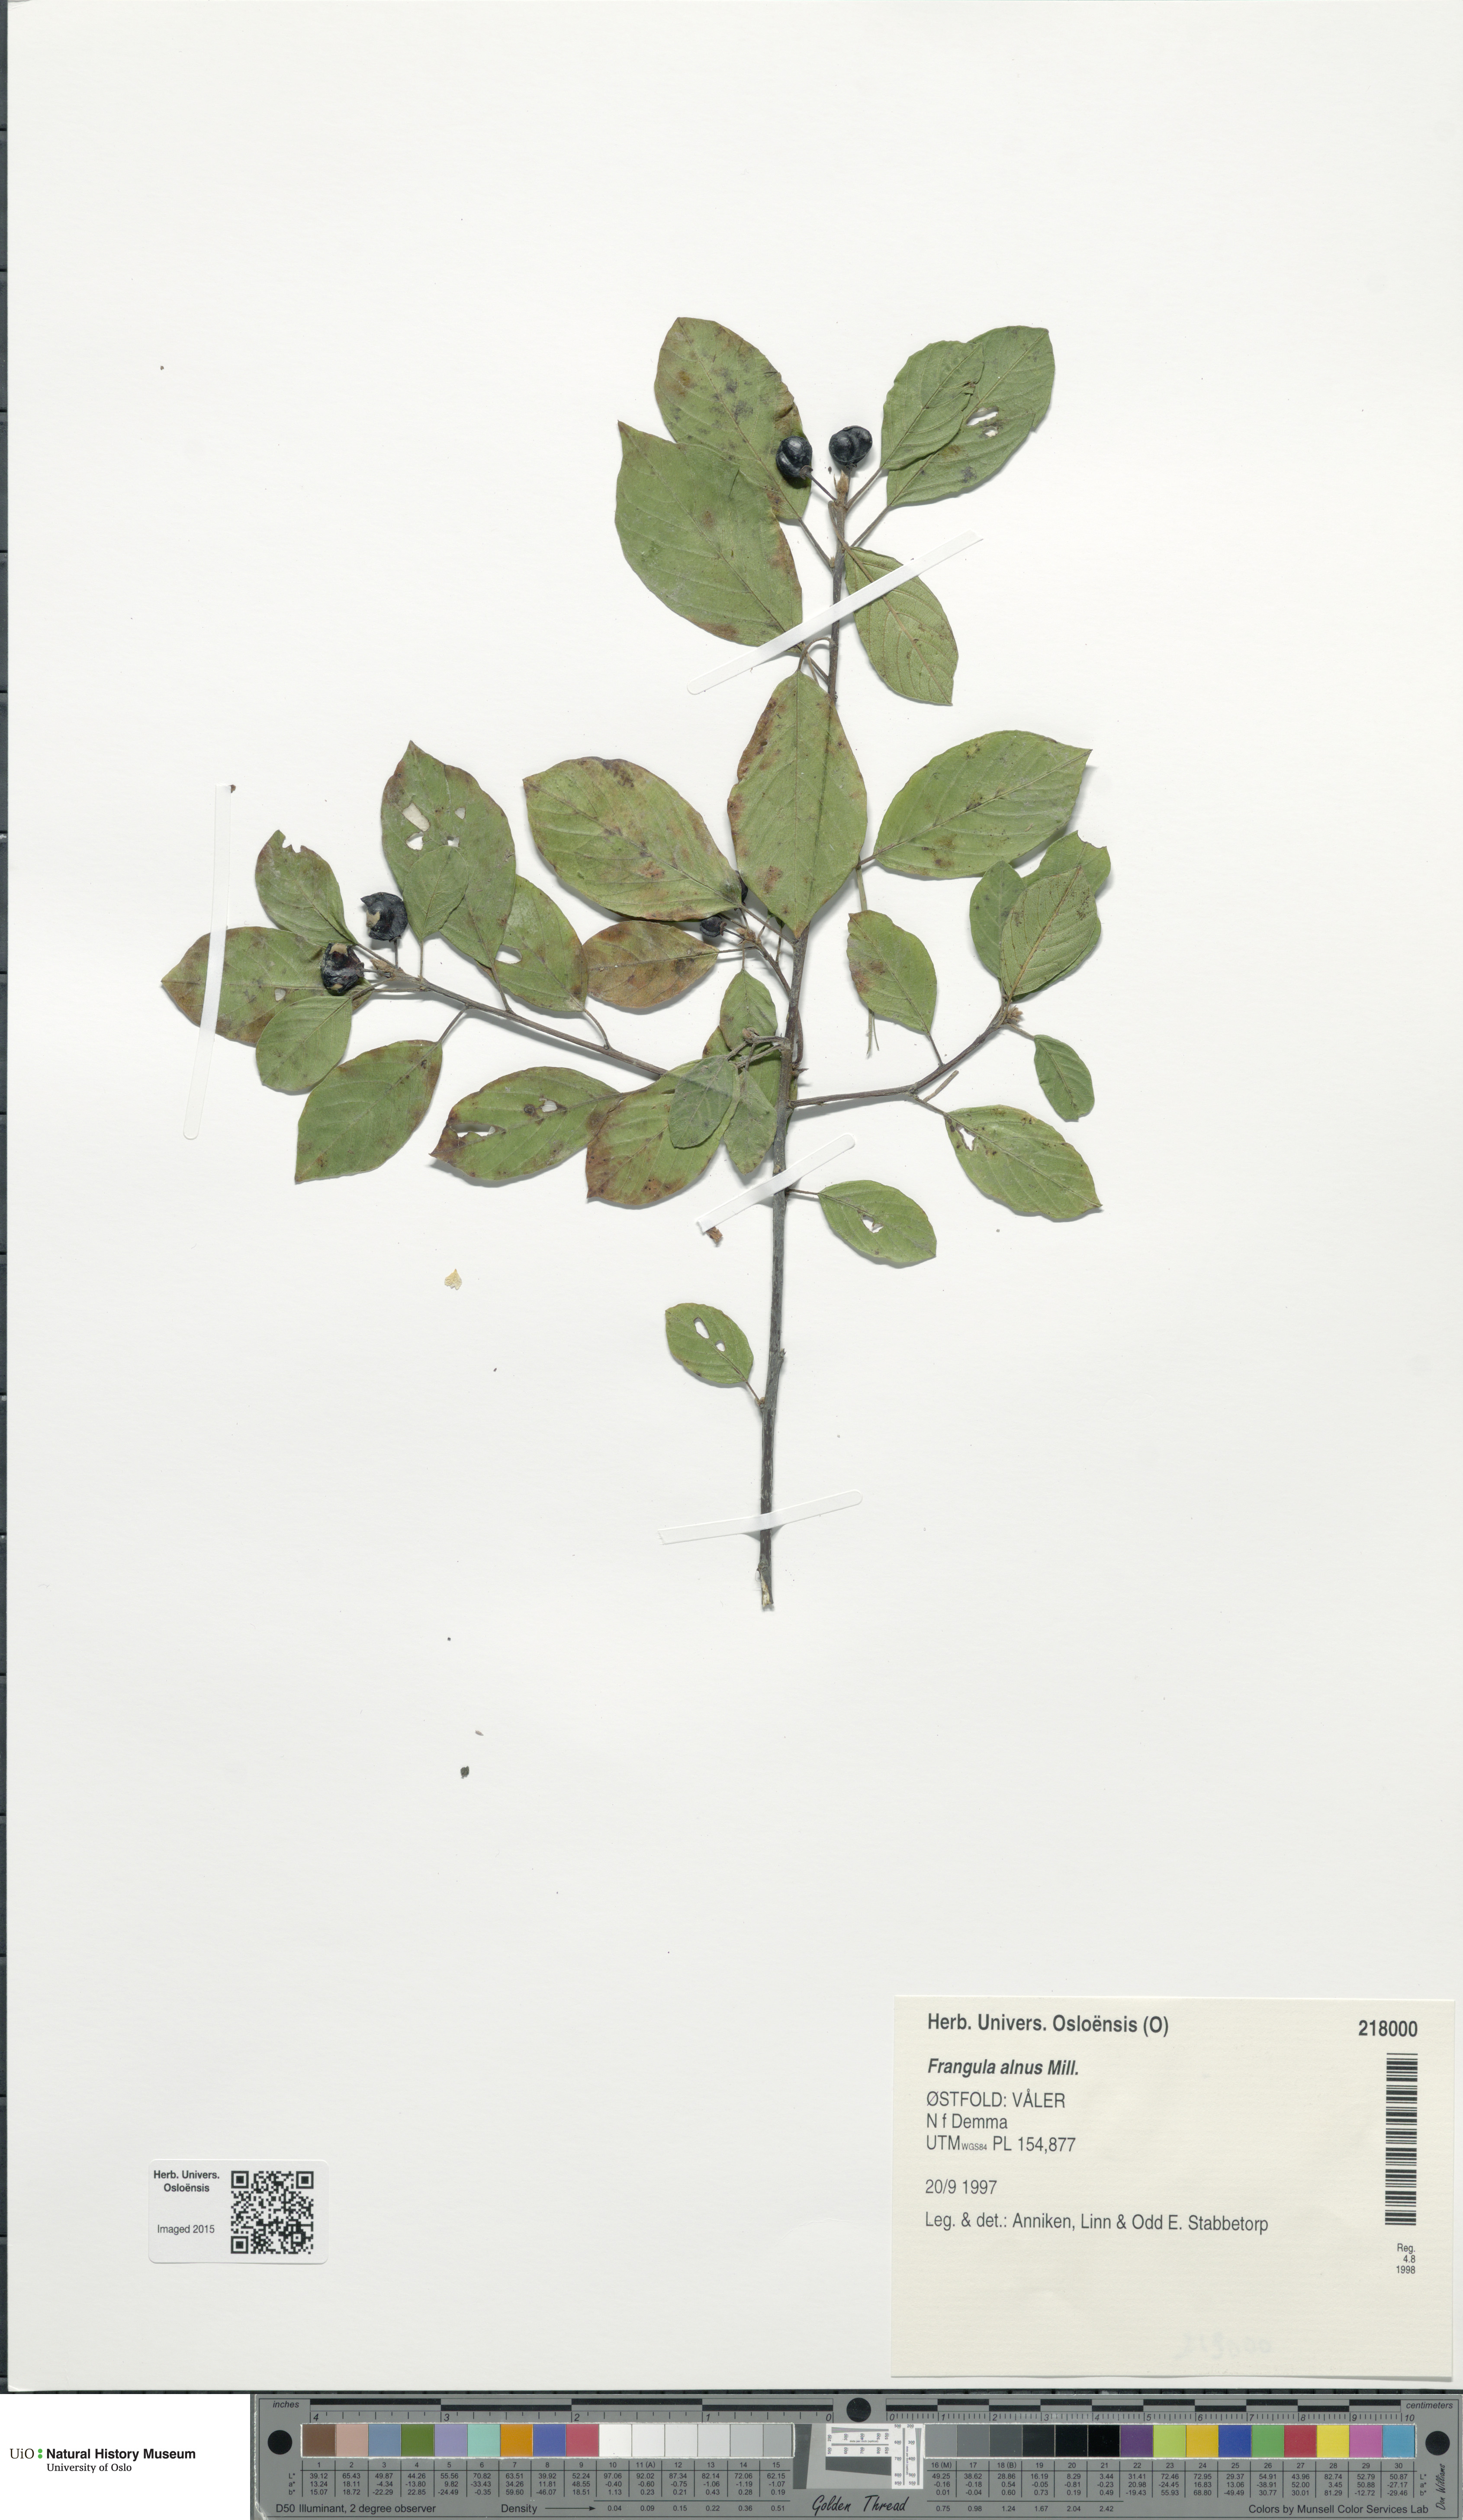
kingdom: Plantae
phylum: Tracheophyta
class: Magnoliopsida
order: Rosales
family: Rhamnaceae
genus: Frangula
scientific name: Frangula alnus
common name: Alder buckthorn
